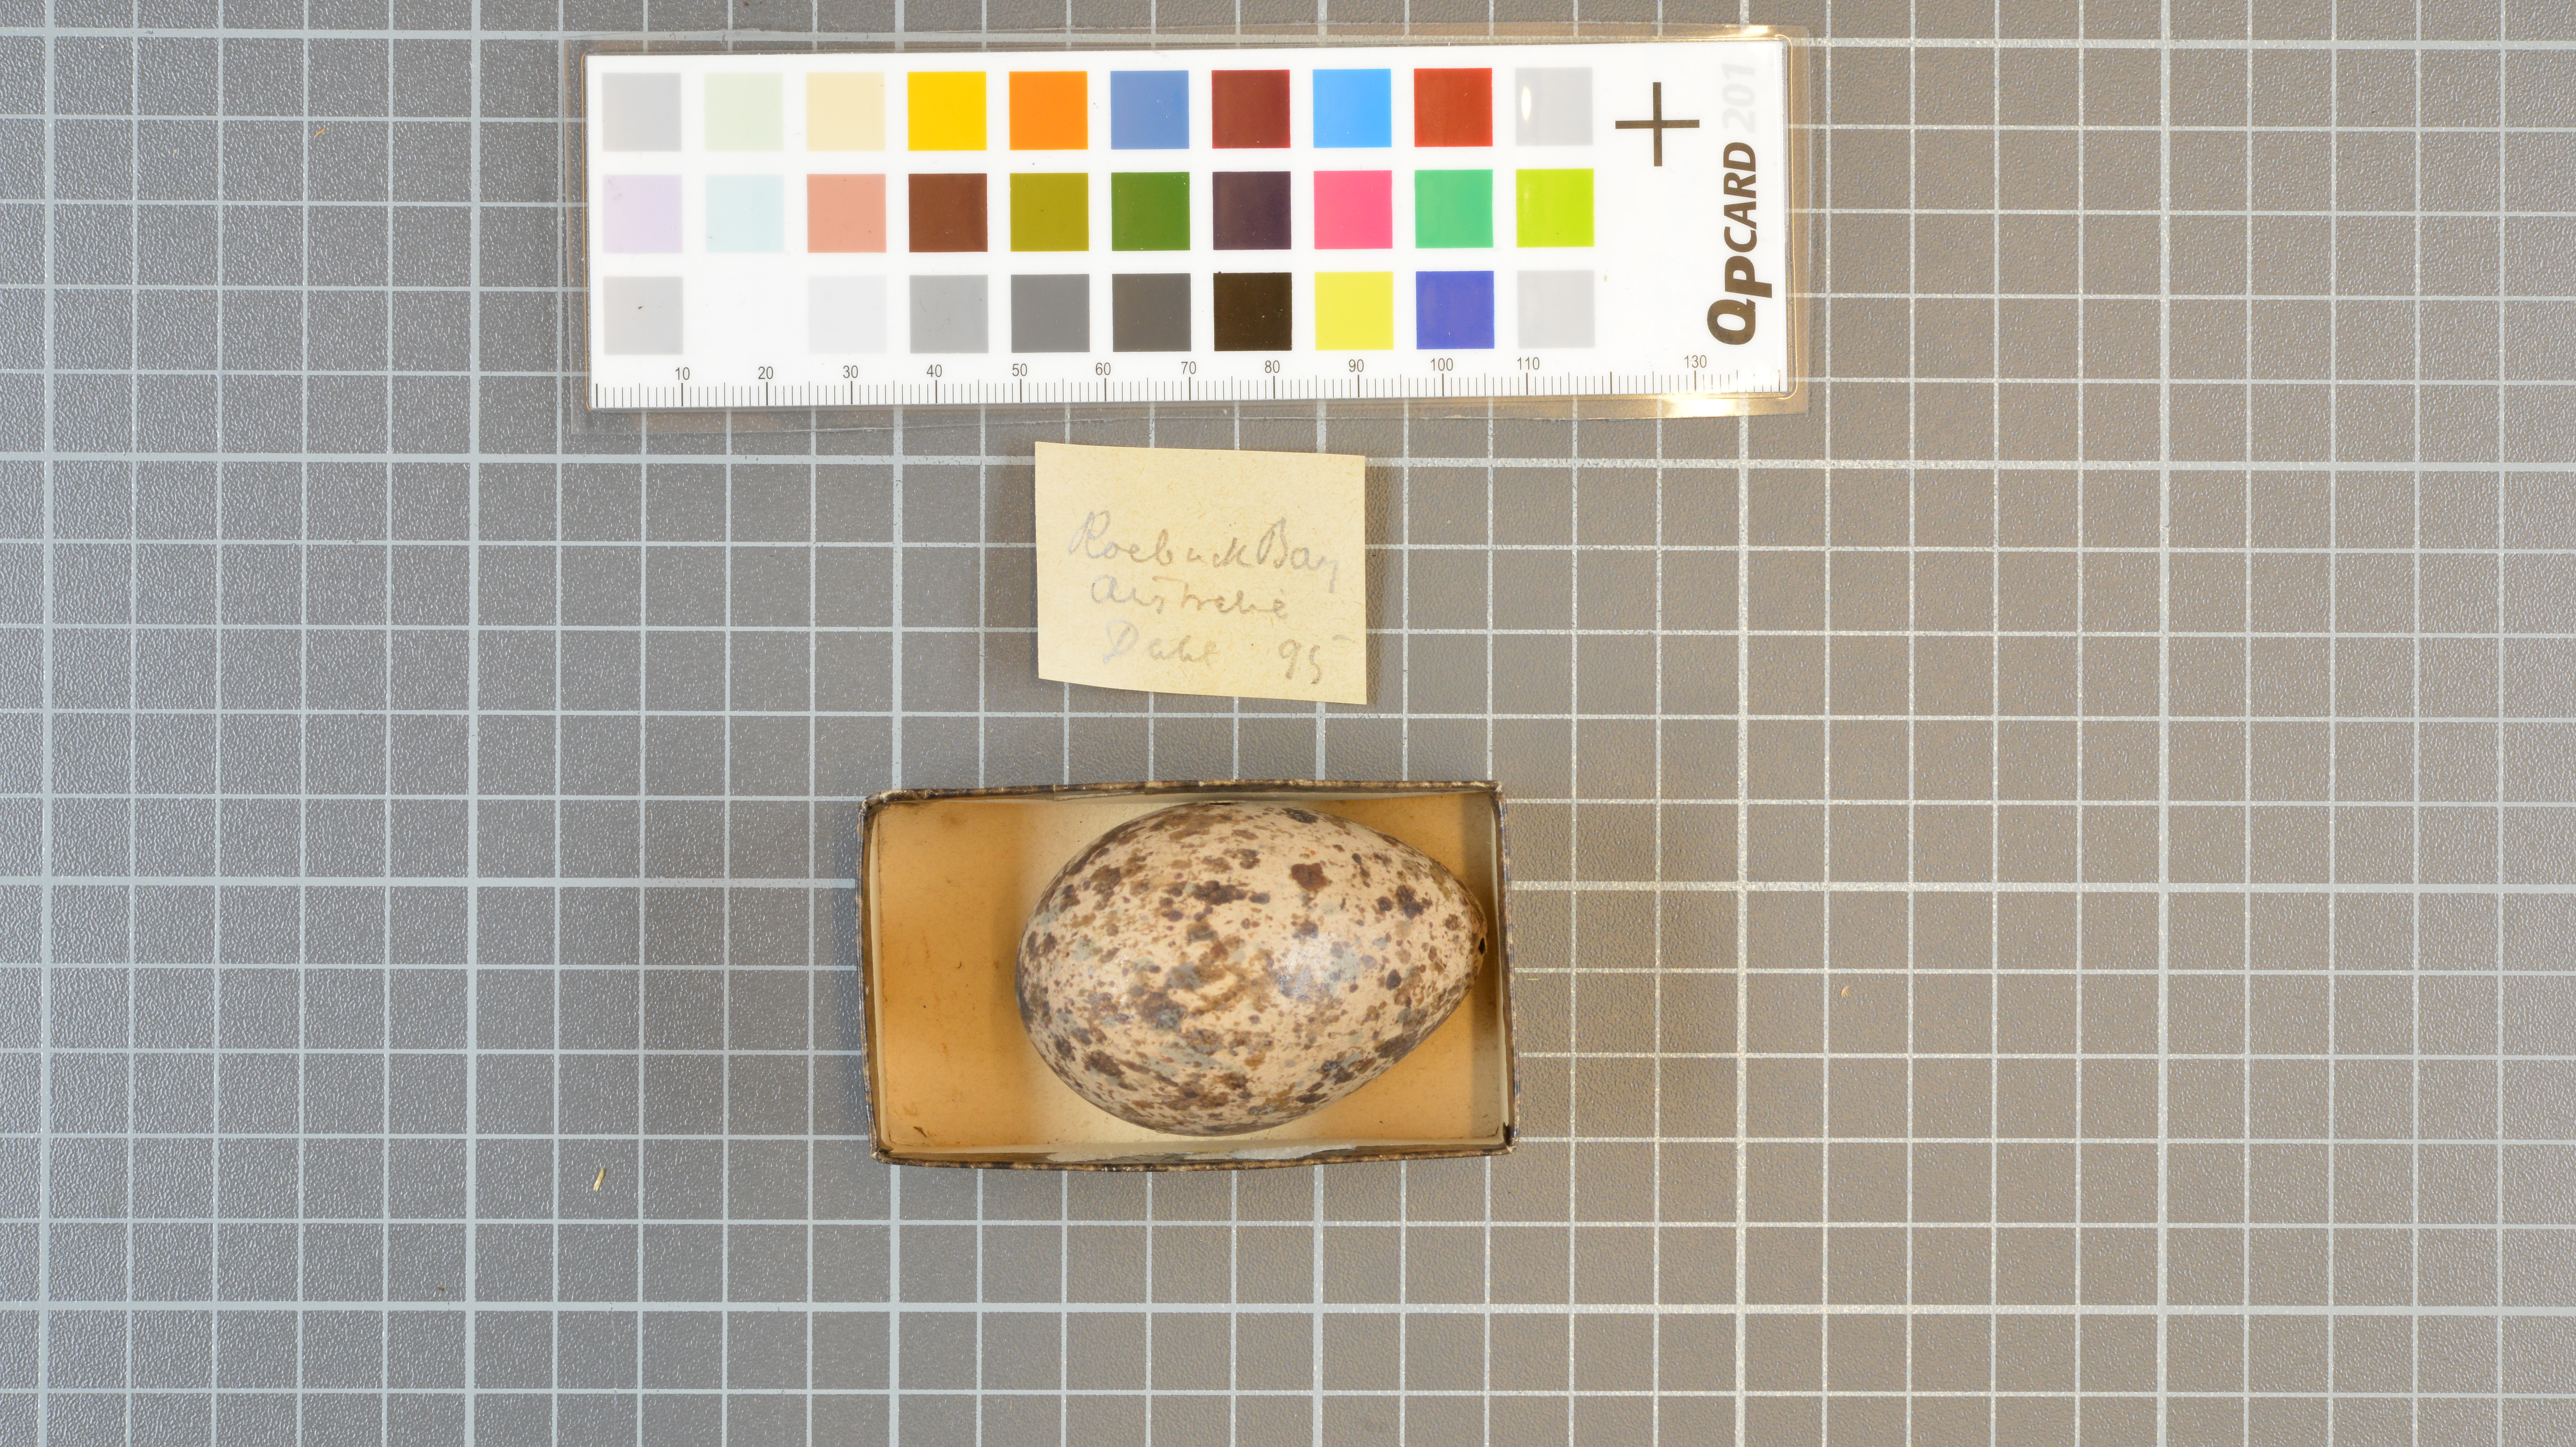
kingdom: Animalia
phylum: Chordata
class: Aves
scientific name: Aves
